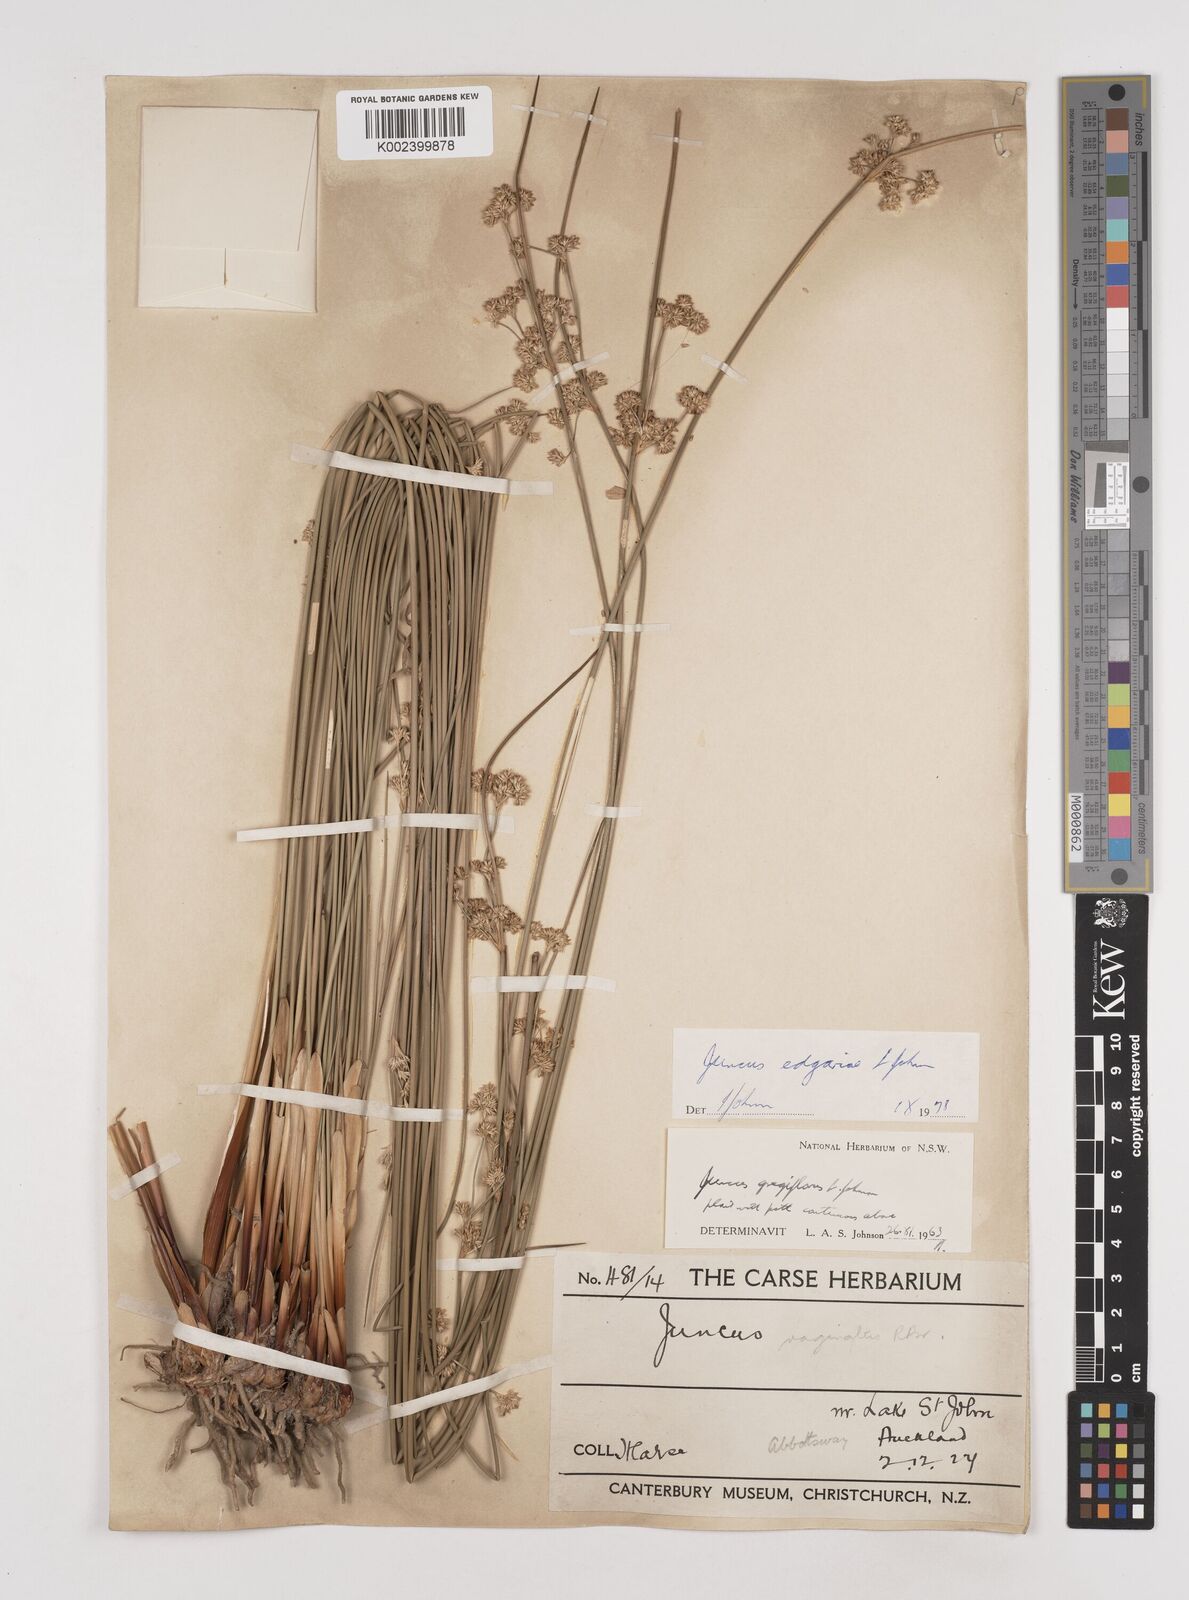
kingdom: Plantae
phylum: Tracheophyta
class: Liliopsida
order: Poales
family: Juncaceae
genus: Juncus
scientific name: Juncus gregiflorus
